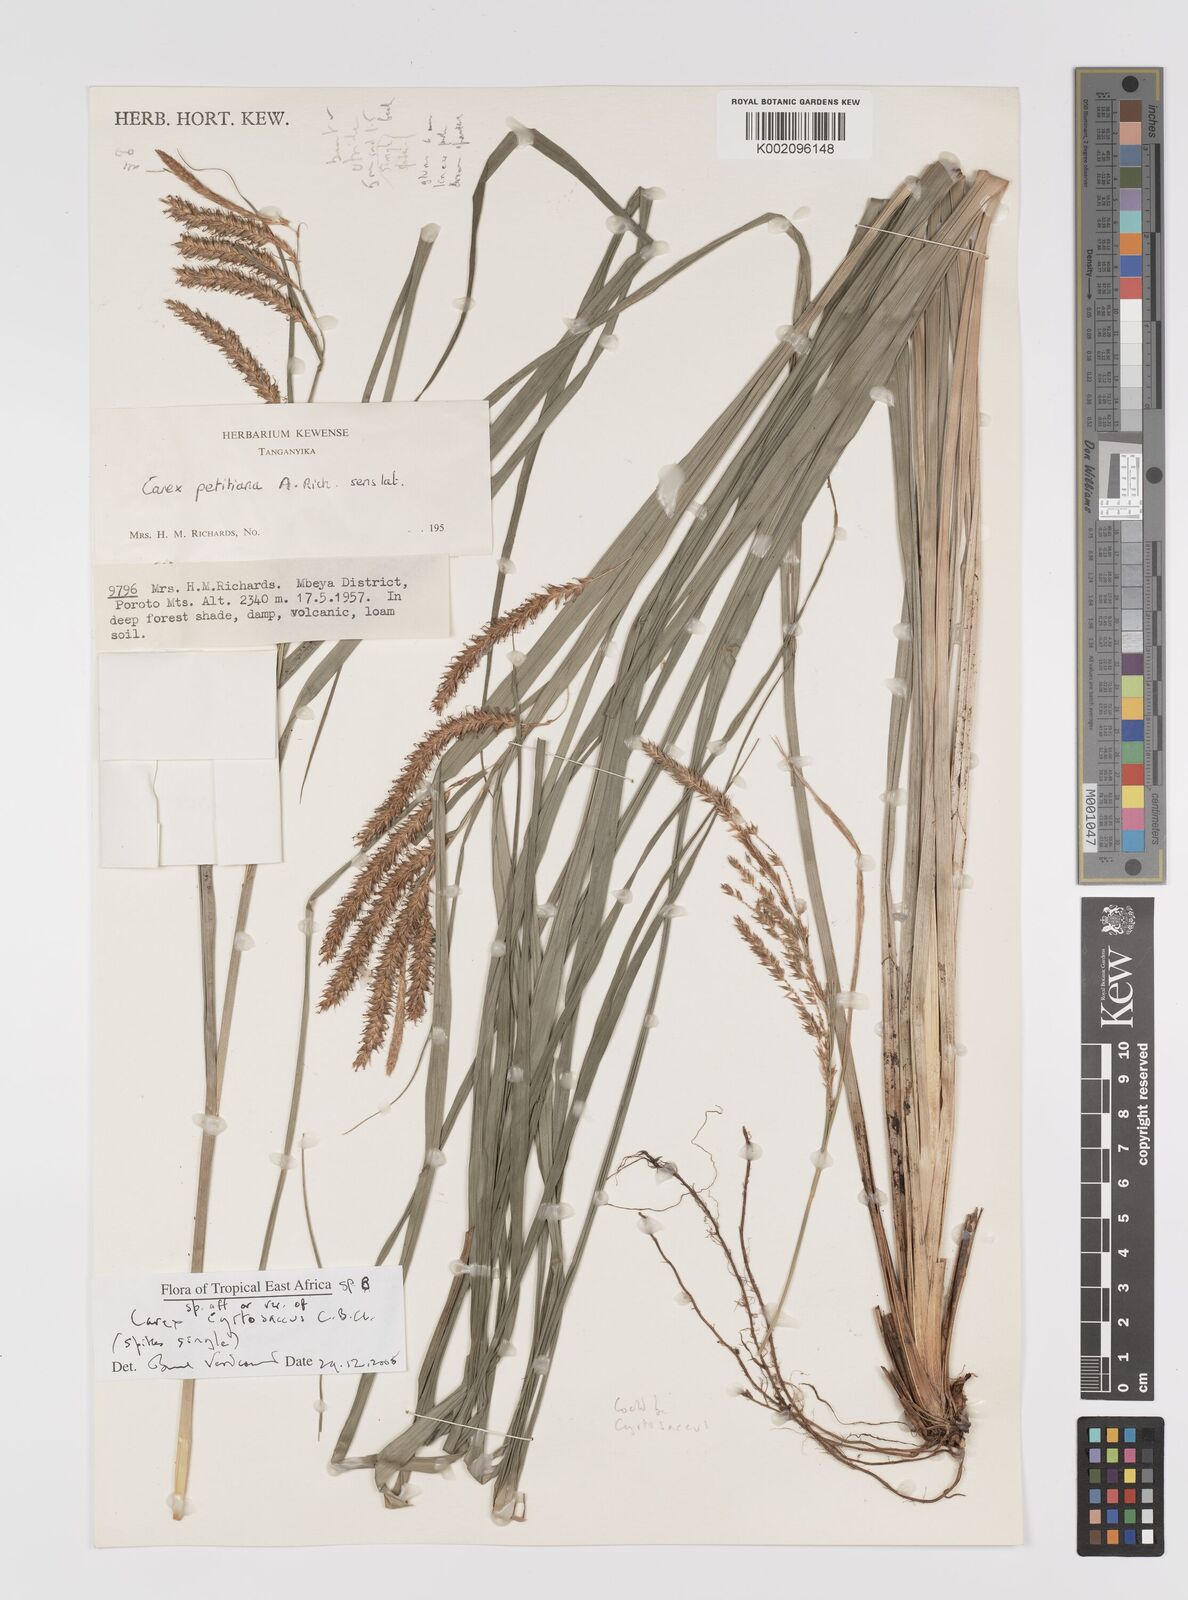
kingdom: Plantae
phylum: Tracheophyta
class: Liliopsida
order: Poales
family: Cyperaceae
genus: Carex
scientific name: Carex
